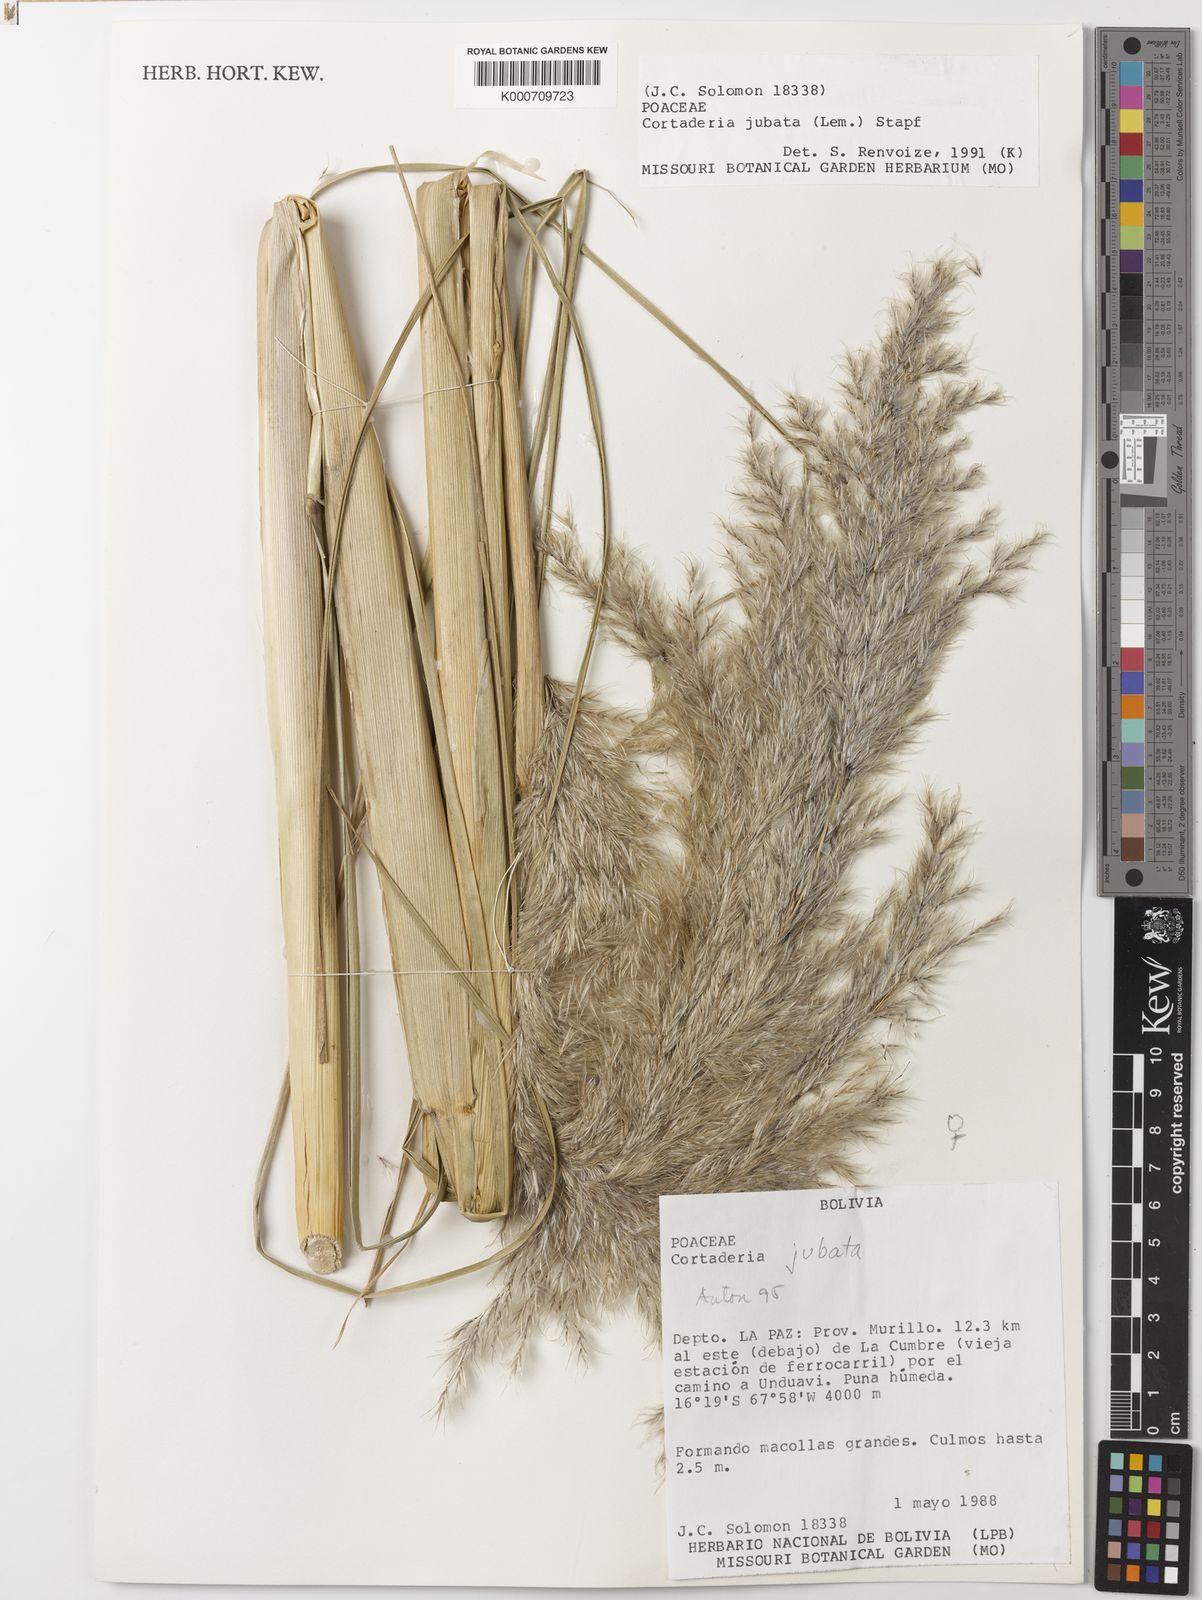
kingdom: Plantae
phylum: Tracheophyta
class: Liliopsida
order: Poales
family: Poaceae
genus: Cortaderia
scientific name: Cortaderia jubata
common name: Purple pampas grass
